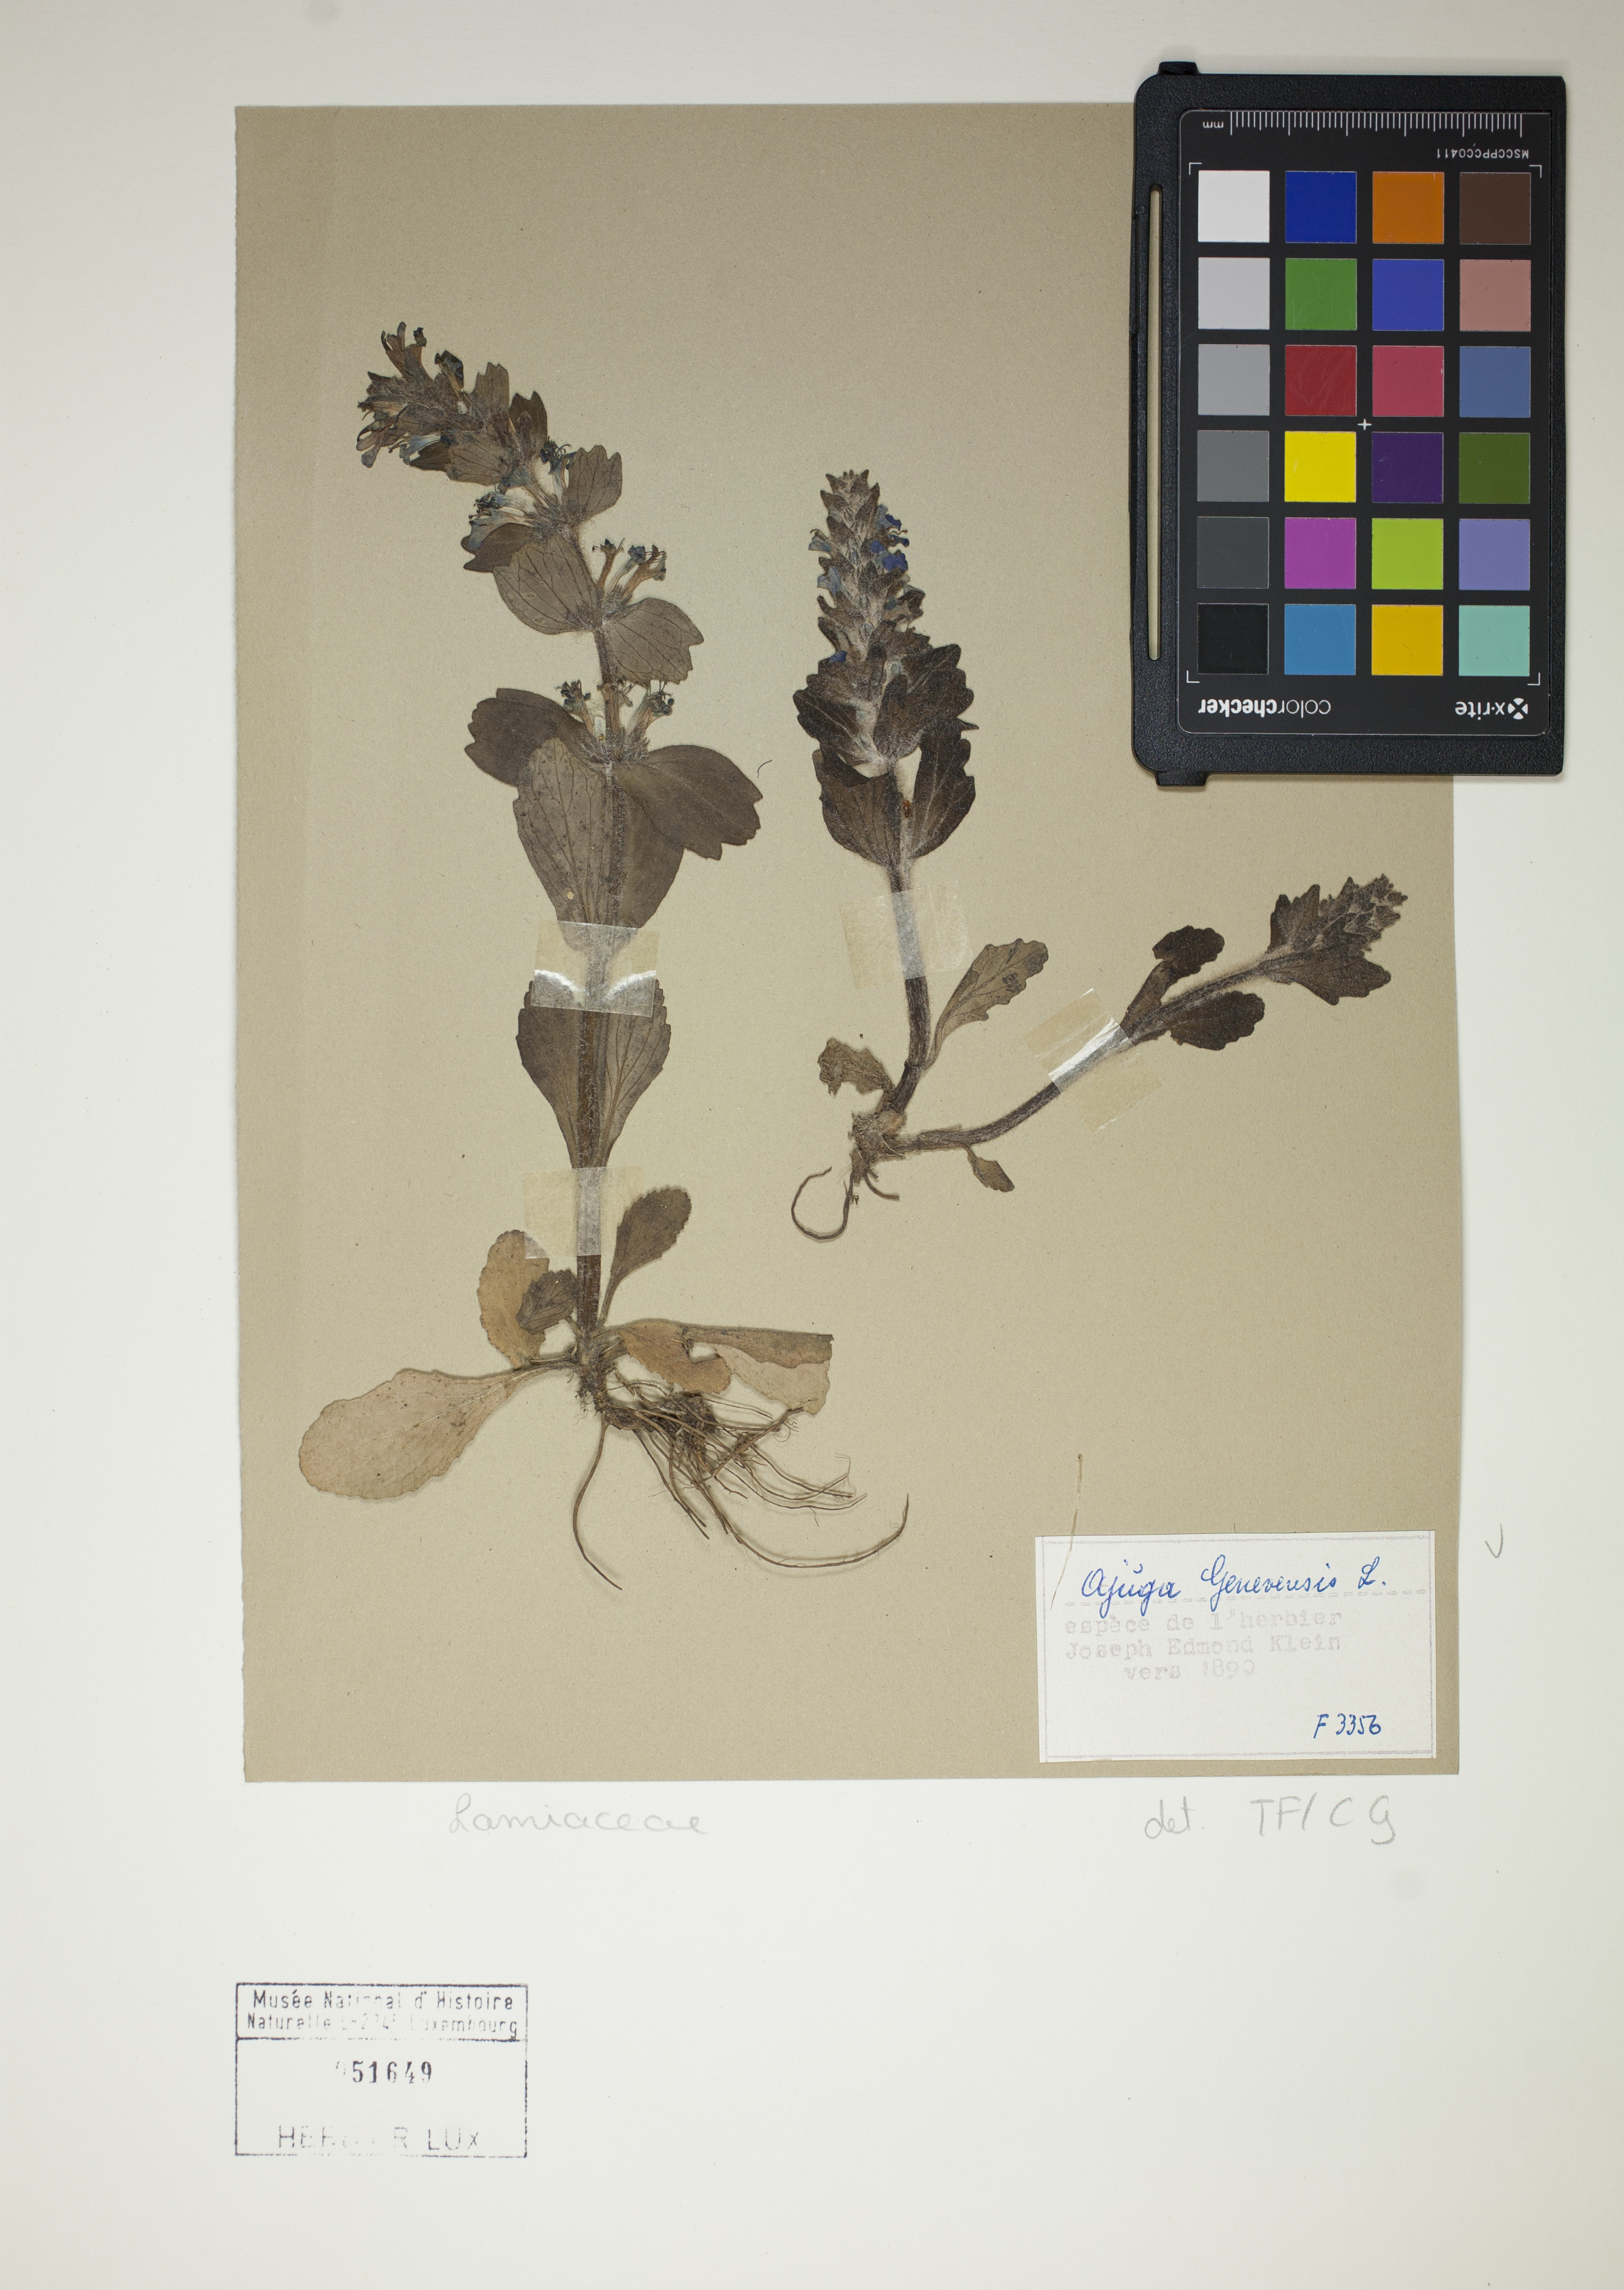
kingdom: Plantae
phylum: Tracheophyta
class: Magnoliopsida
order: Lamiales
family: Lamiaceae
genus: Ajuga
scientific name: Ajuga genevensis
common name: Blue bugle
